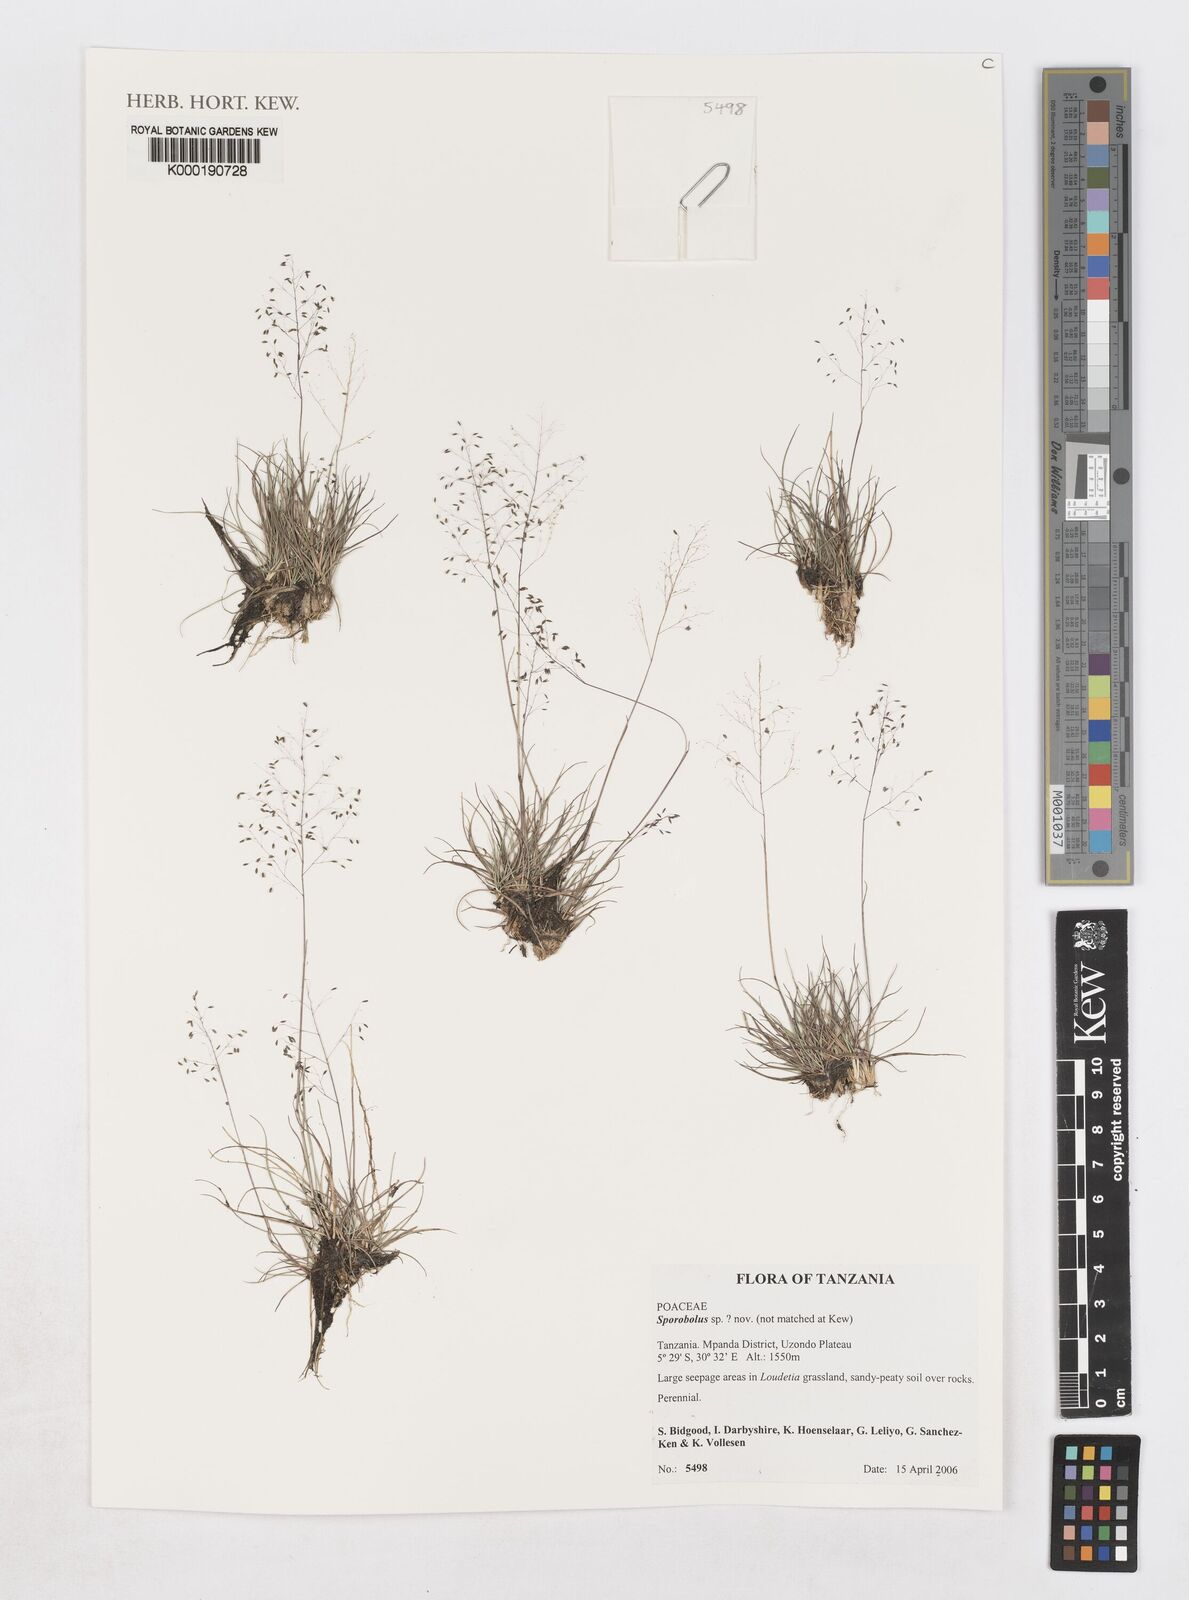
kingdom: Plantae
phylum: Tracheophyta
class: Liliopsida
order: Poales
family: Poaceae
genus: Sporobolus
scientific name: Sporobolus
